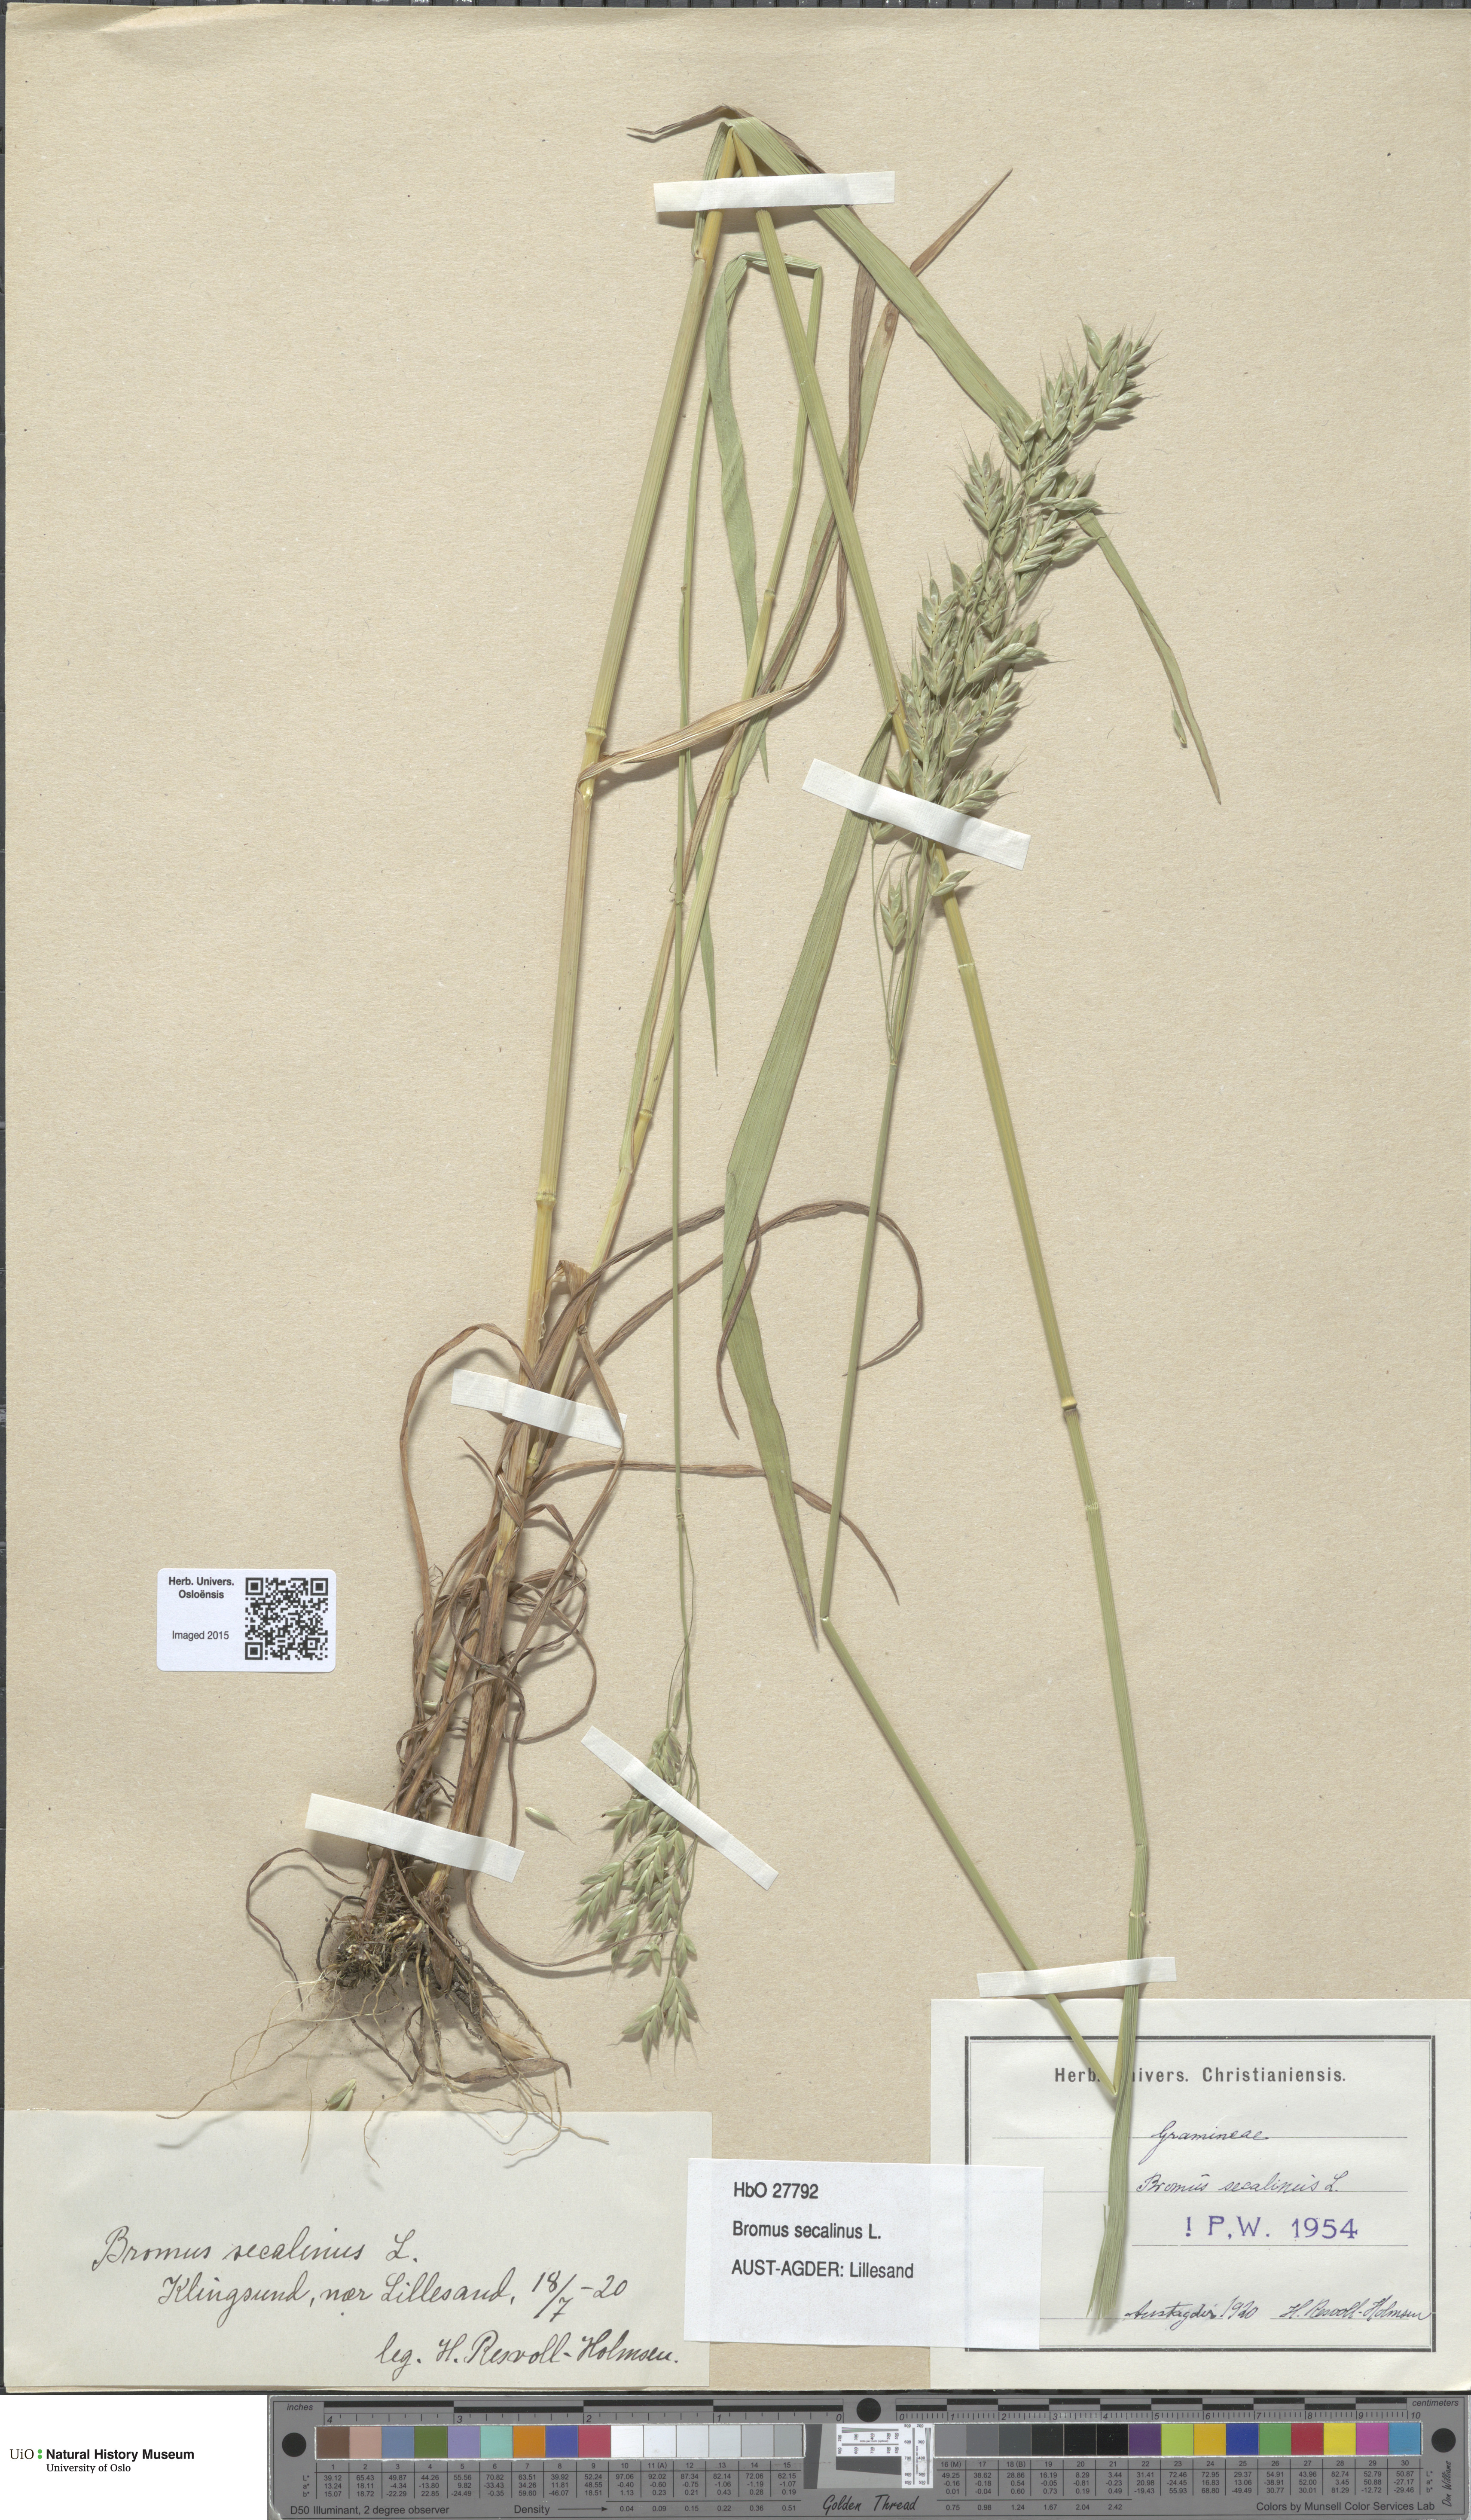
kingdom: Plantae
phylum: Tracheophyta
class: Liliopsida
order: Poales
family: Poaceae
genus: Bromus
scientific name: Bromus secalinus
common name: Rye brome
